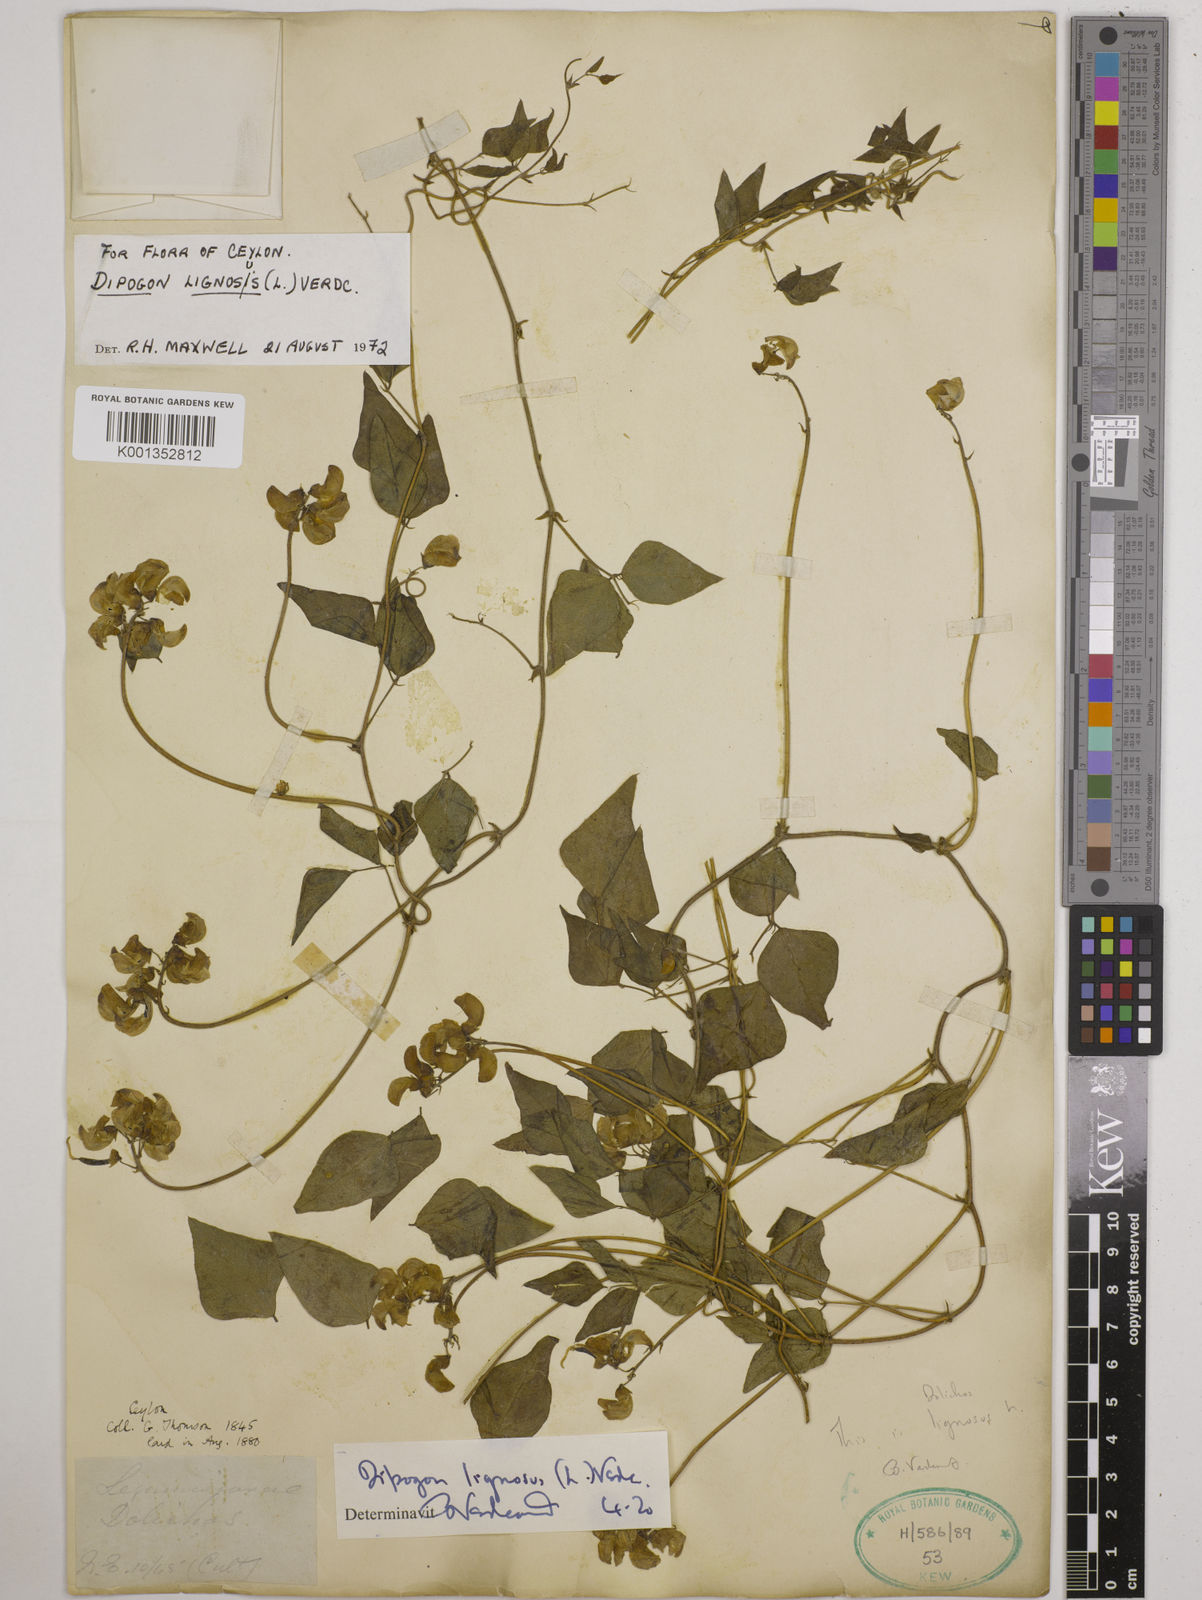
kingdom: Plantae
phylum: Tracheophyta
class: Magnoliopsida
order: Fabales
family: Fabaceae
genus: Dipogon
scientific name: Dipogon lignosus
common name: Okie bean
